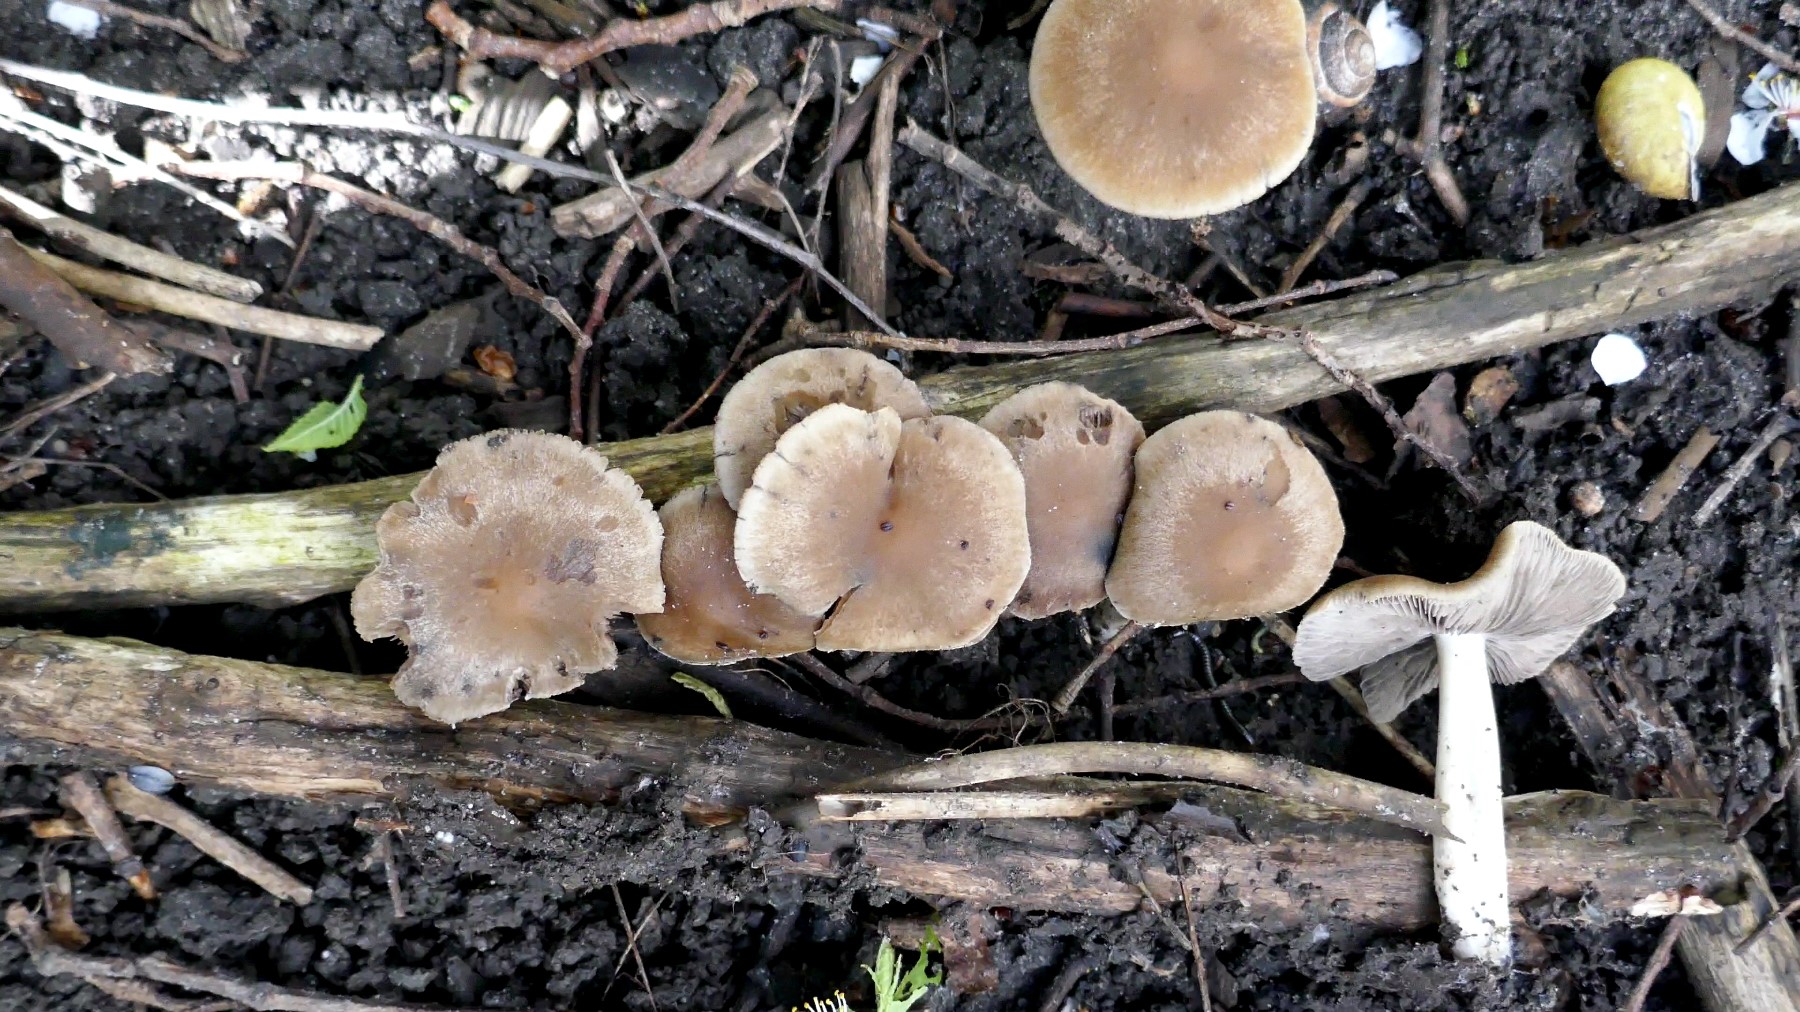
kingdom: Fungi
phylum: Basidiomycota
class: Agaricomycetes
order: Agaricales
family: Psathyrellaceae
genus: Psathyrella
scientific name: Psathyrella spadiceogrisea
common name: gråbrun mørkhat
